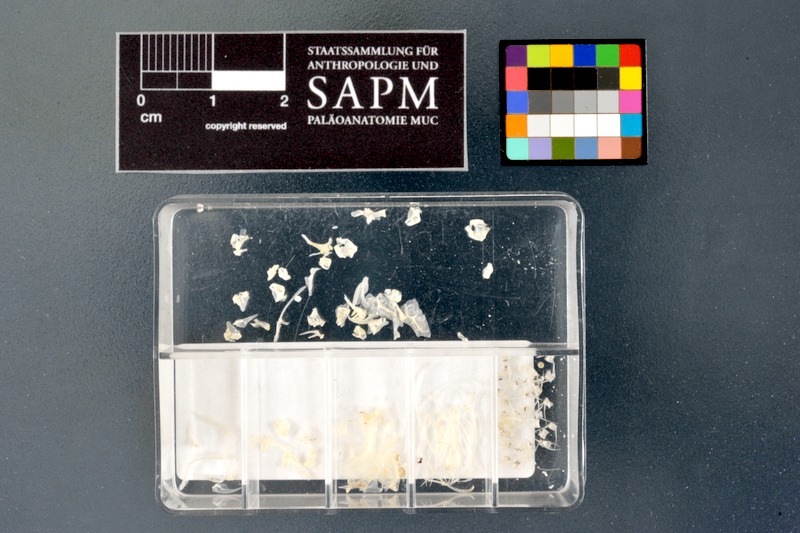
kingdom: Animalia
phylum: Chordata
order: Cypriniformes
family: Cyprinidae
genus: Leucaspius
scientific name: Leucaspius delineatus
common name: Sunbleak
